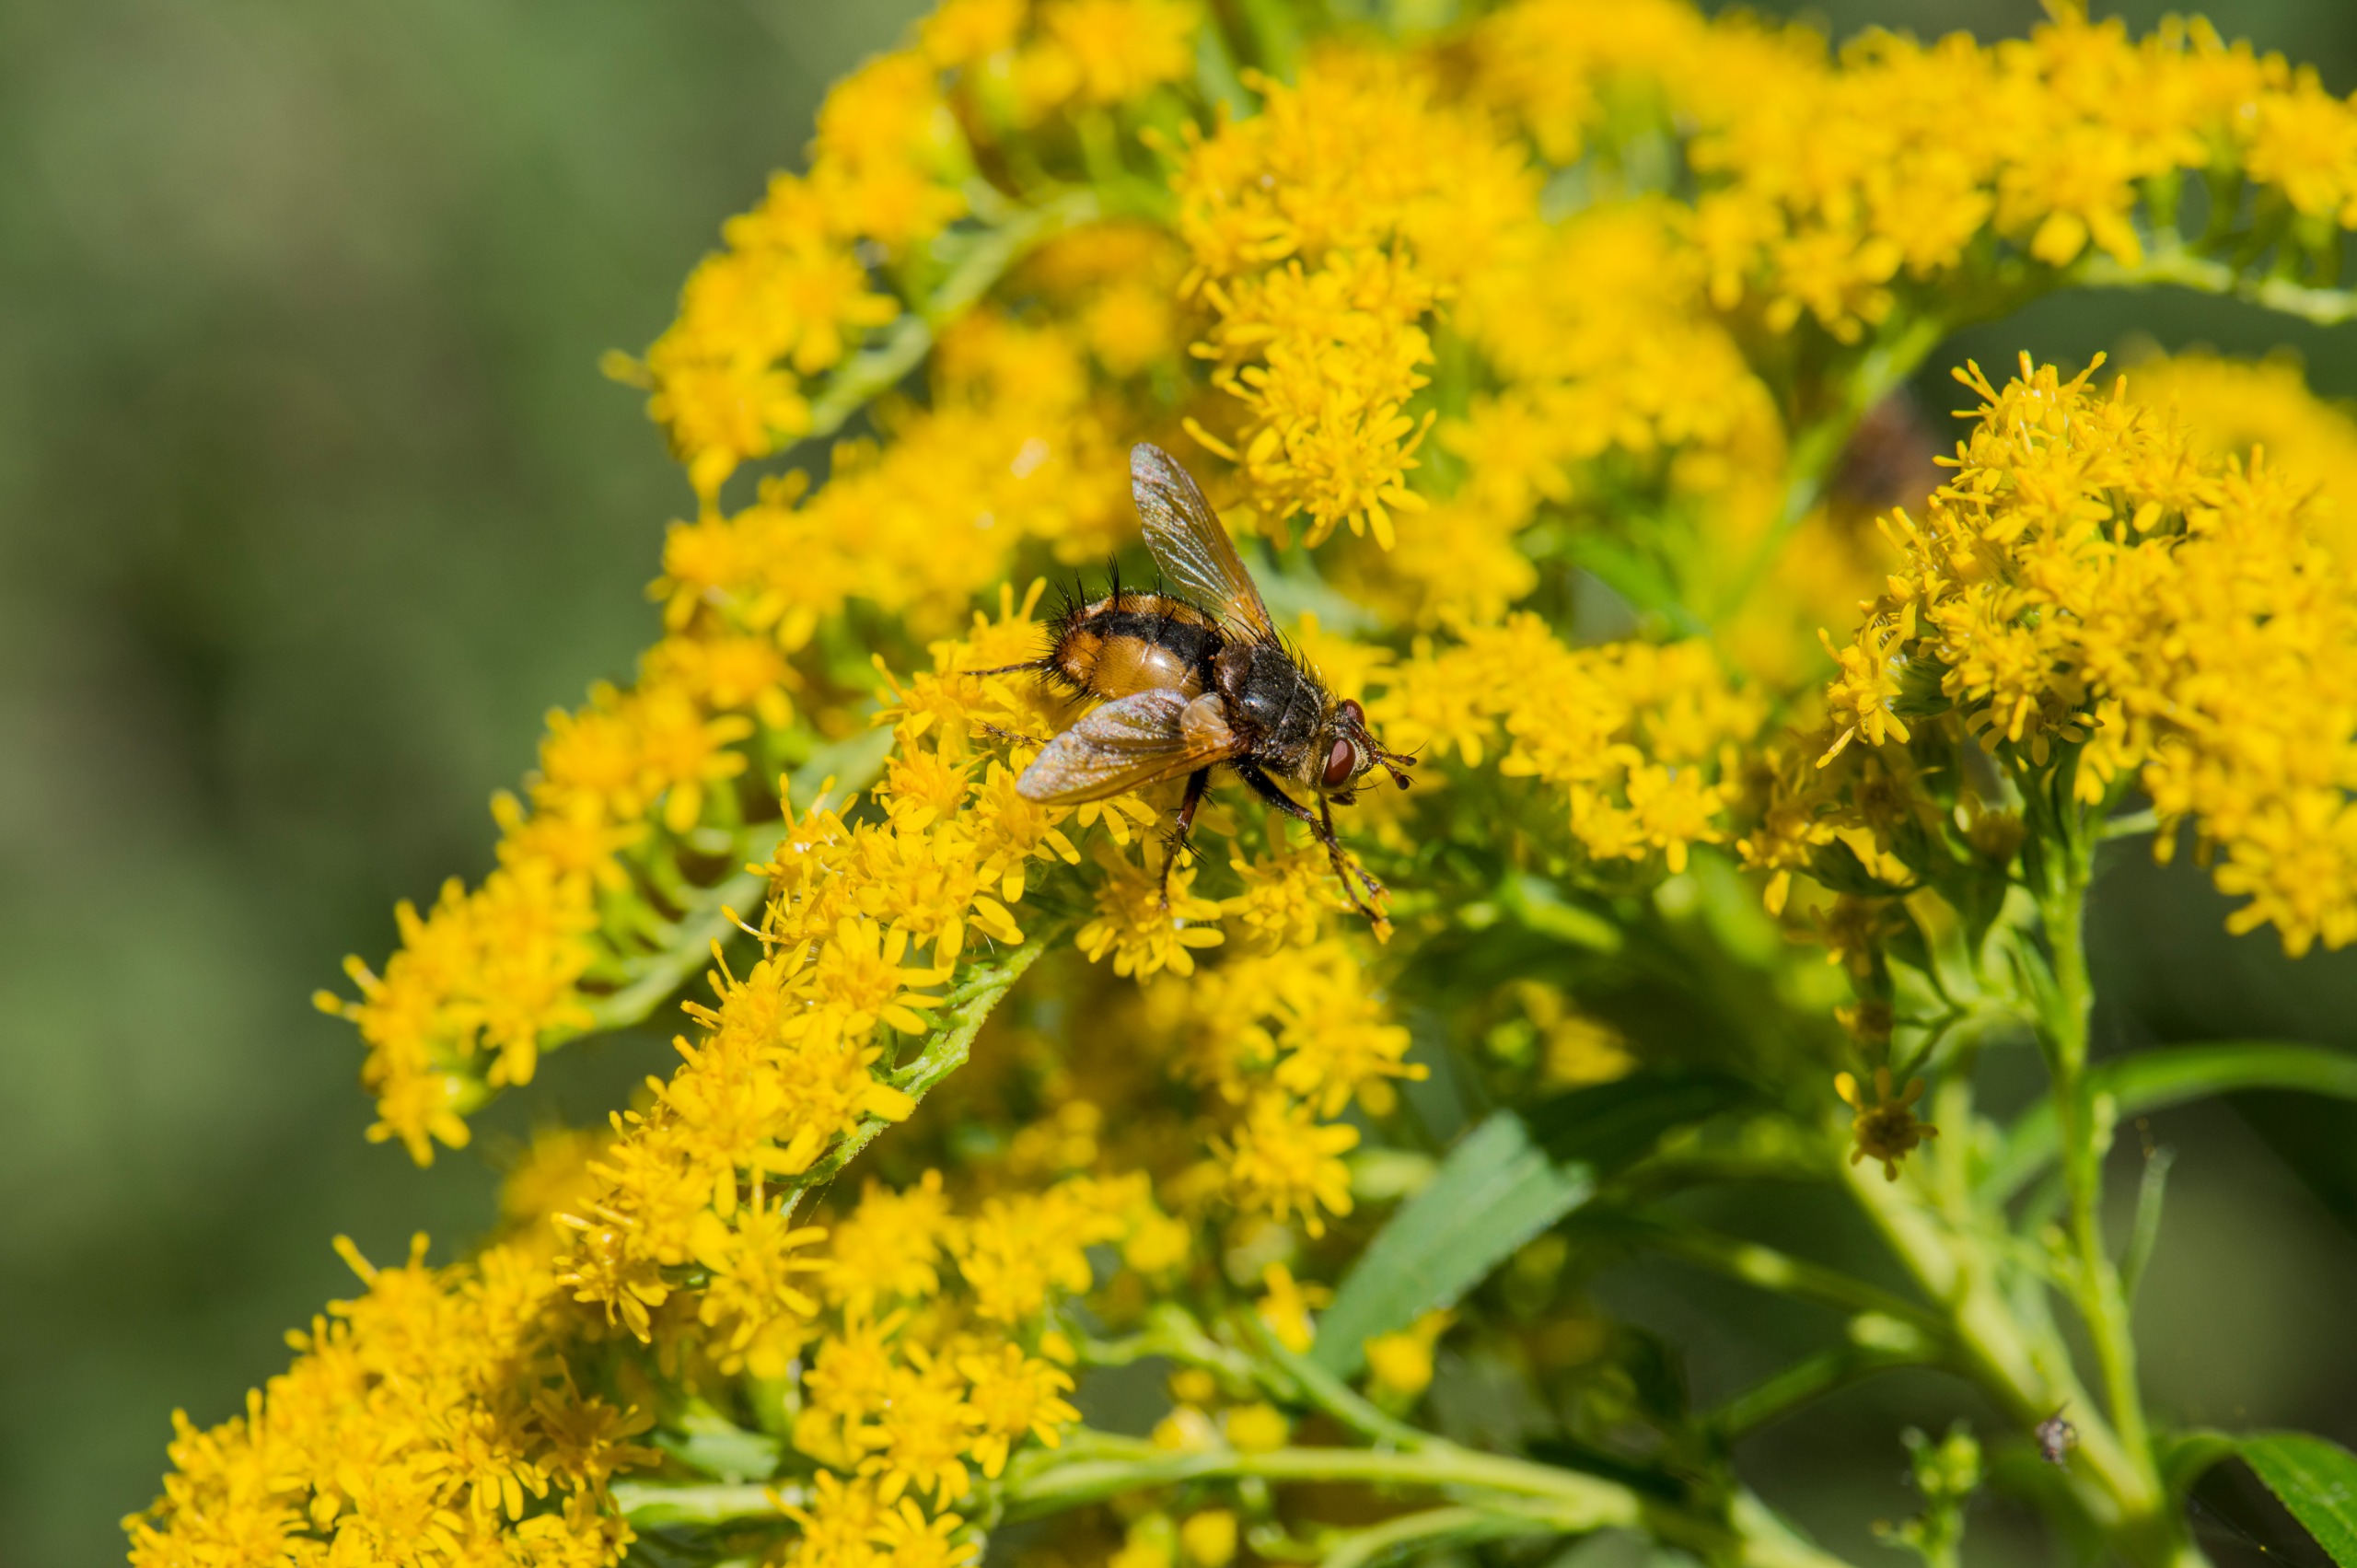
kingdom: Animalia
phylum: Arthropoda
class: Insecta
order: Diptera
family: Tachinidae
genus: Tachina
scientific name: Tachina fera
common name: Mellemfluen oskar
